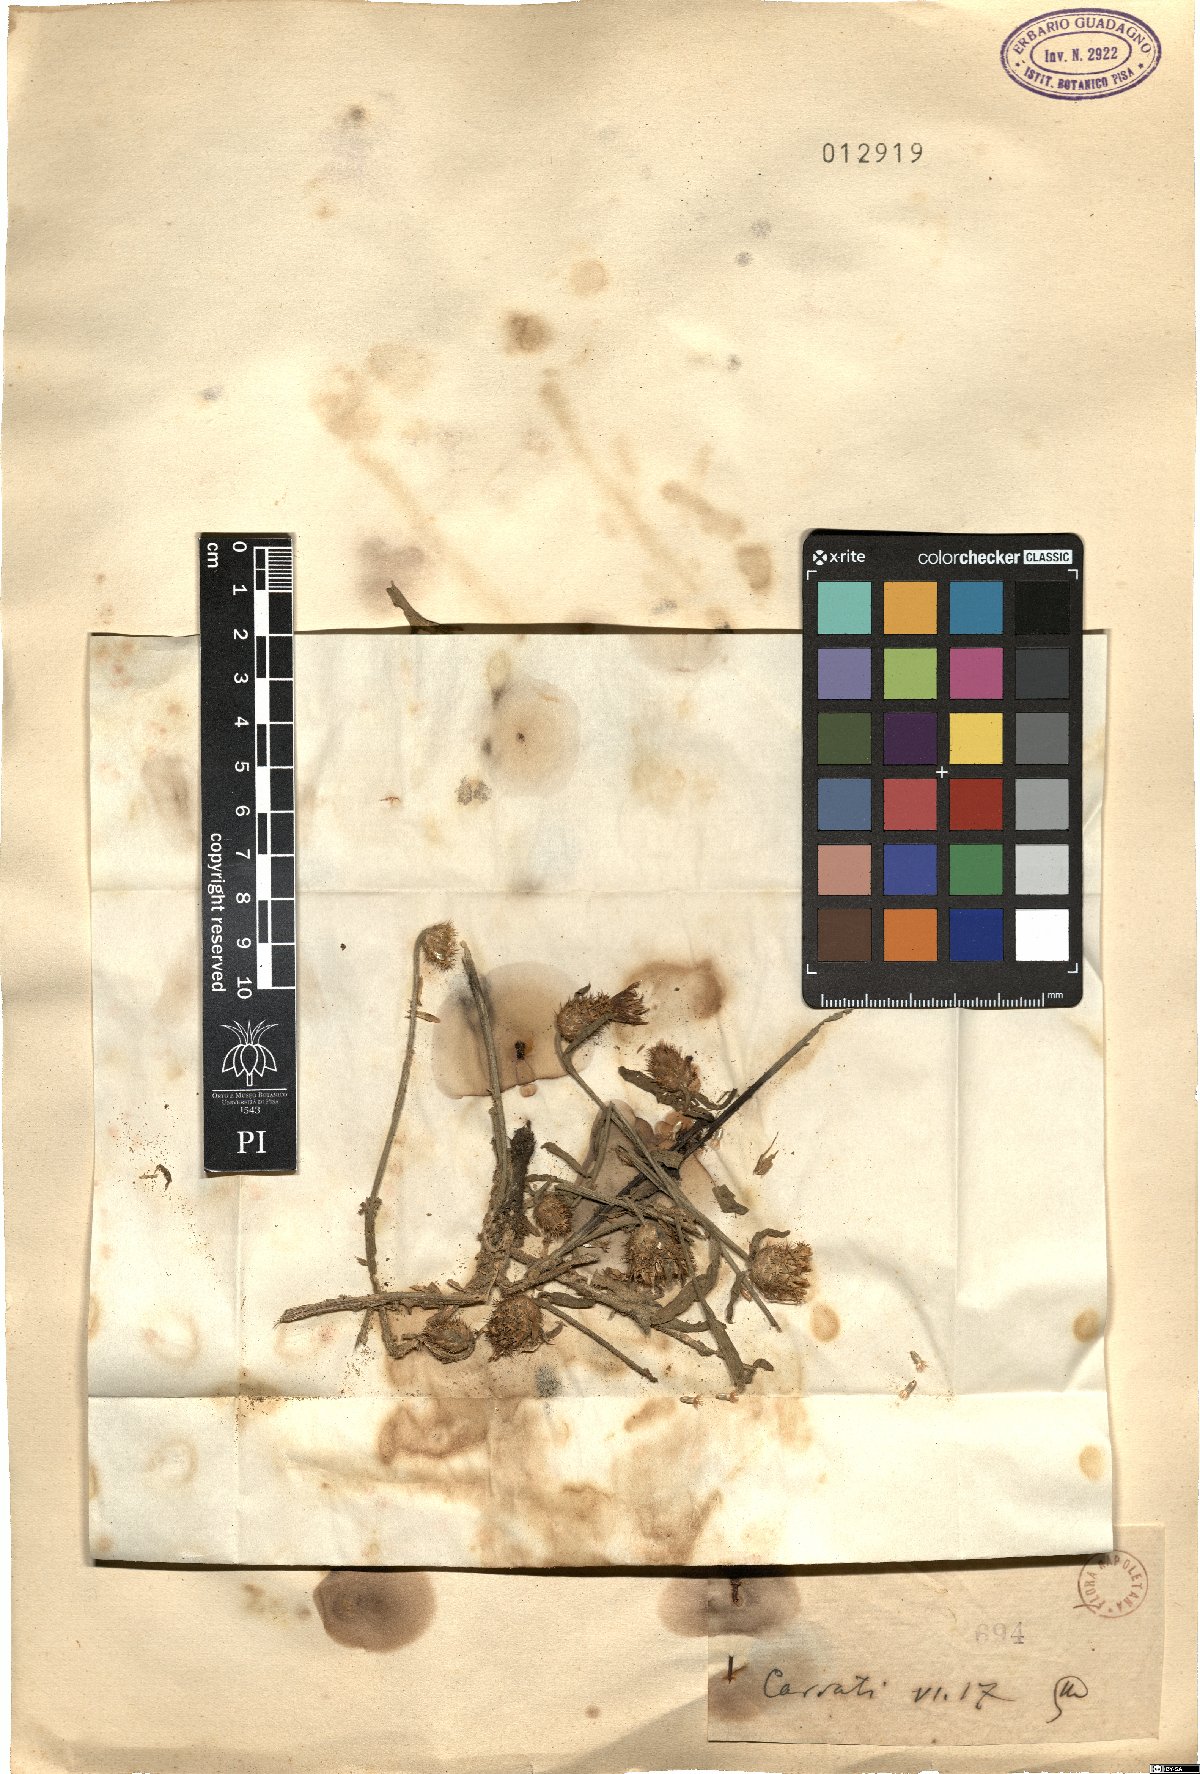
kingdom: Plantae
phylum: Tracheophyta
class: Magnoliopsida
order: Asterales
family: Asteraceae
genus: Centaurea
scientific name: Centaurea
